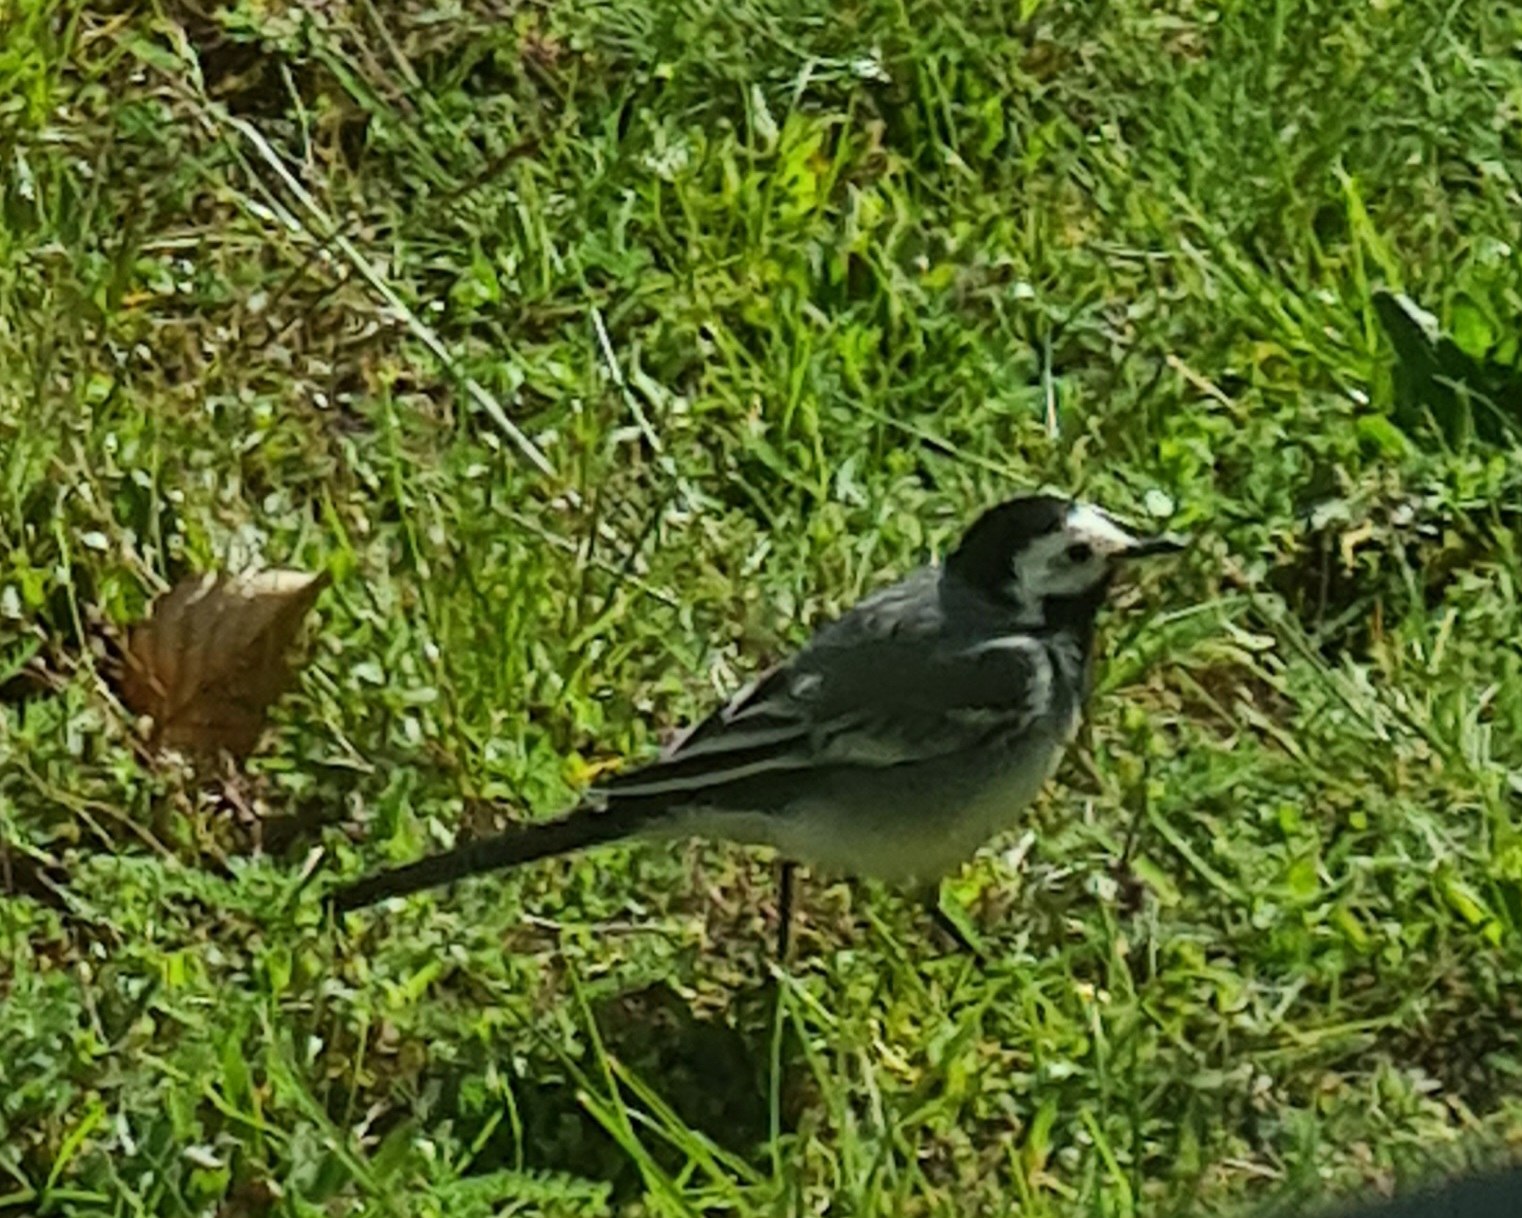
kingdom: Animalia
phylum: Chordata
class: Aves
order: Passeriformes
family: Motacillidae
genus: Motacilla
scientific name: Motacilla alba
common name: Hvid vipstjert
